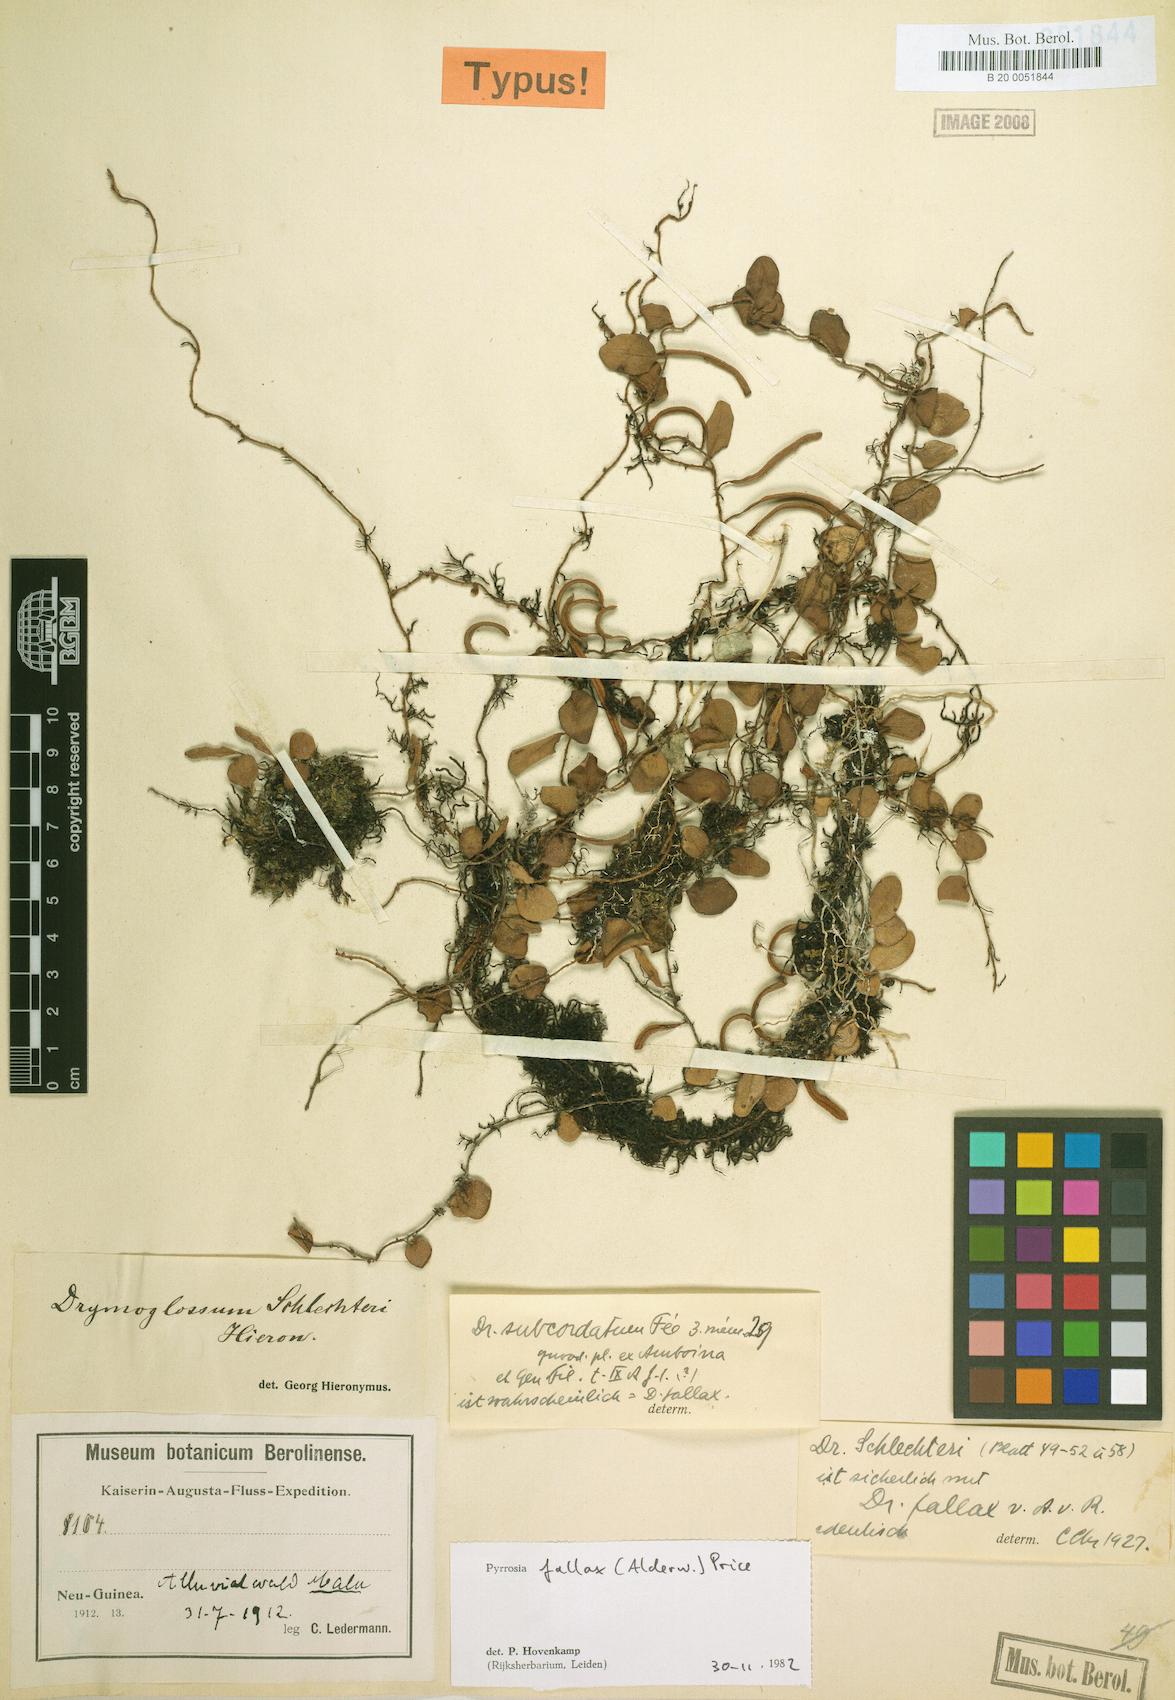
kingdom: Plantae
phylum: Tracheophyta
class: Polypodiopsida
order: Polypodiales
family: Polypodiaceae
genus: Pyrrosia
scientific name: Pyrrosia fallax
